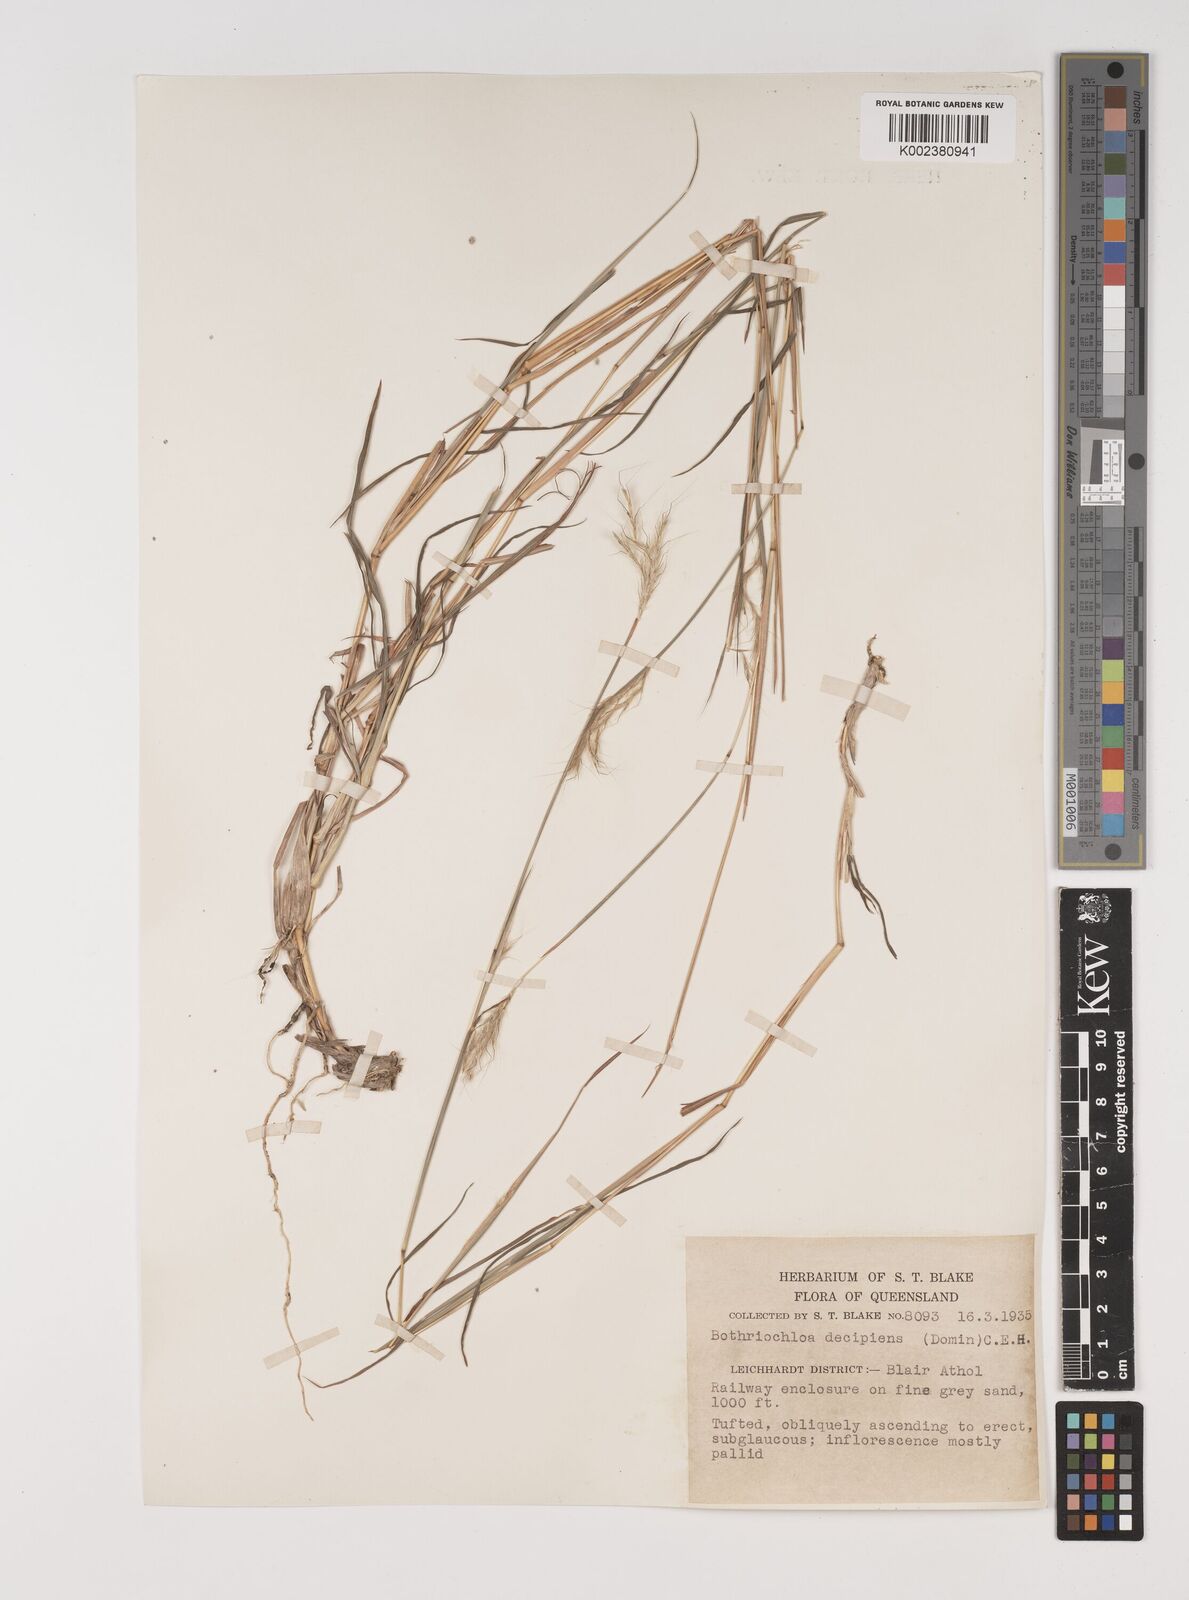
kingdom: Plantae
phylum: Tracheophyta
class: Liliopsida
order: Poales
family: Poaceae
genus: Bothriochloa
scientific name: Bothriochloa decipiens
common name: Pitted-bluegrass
